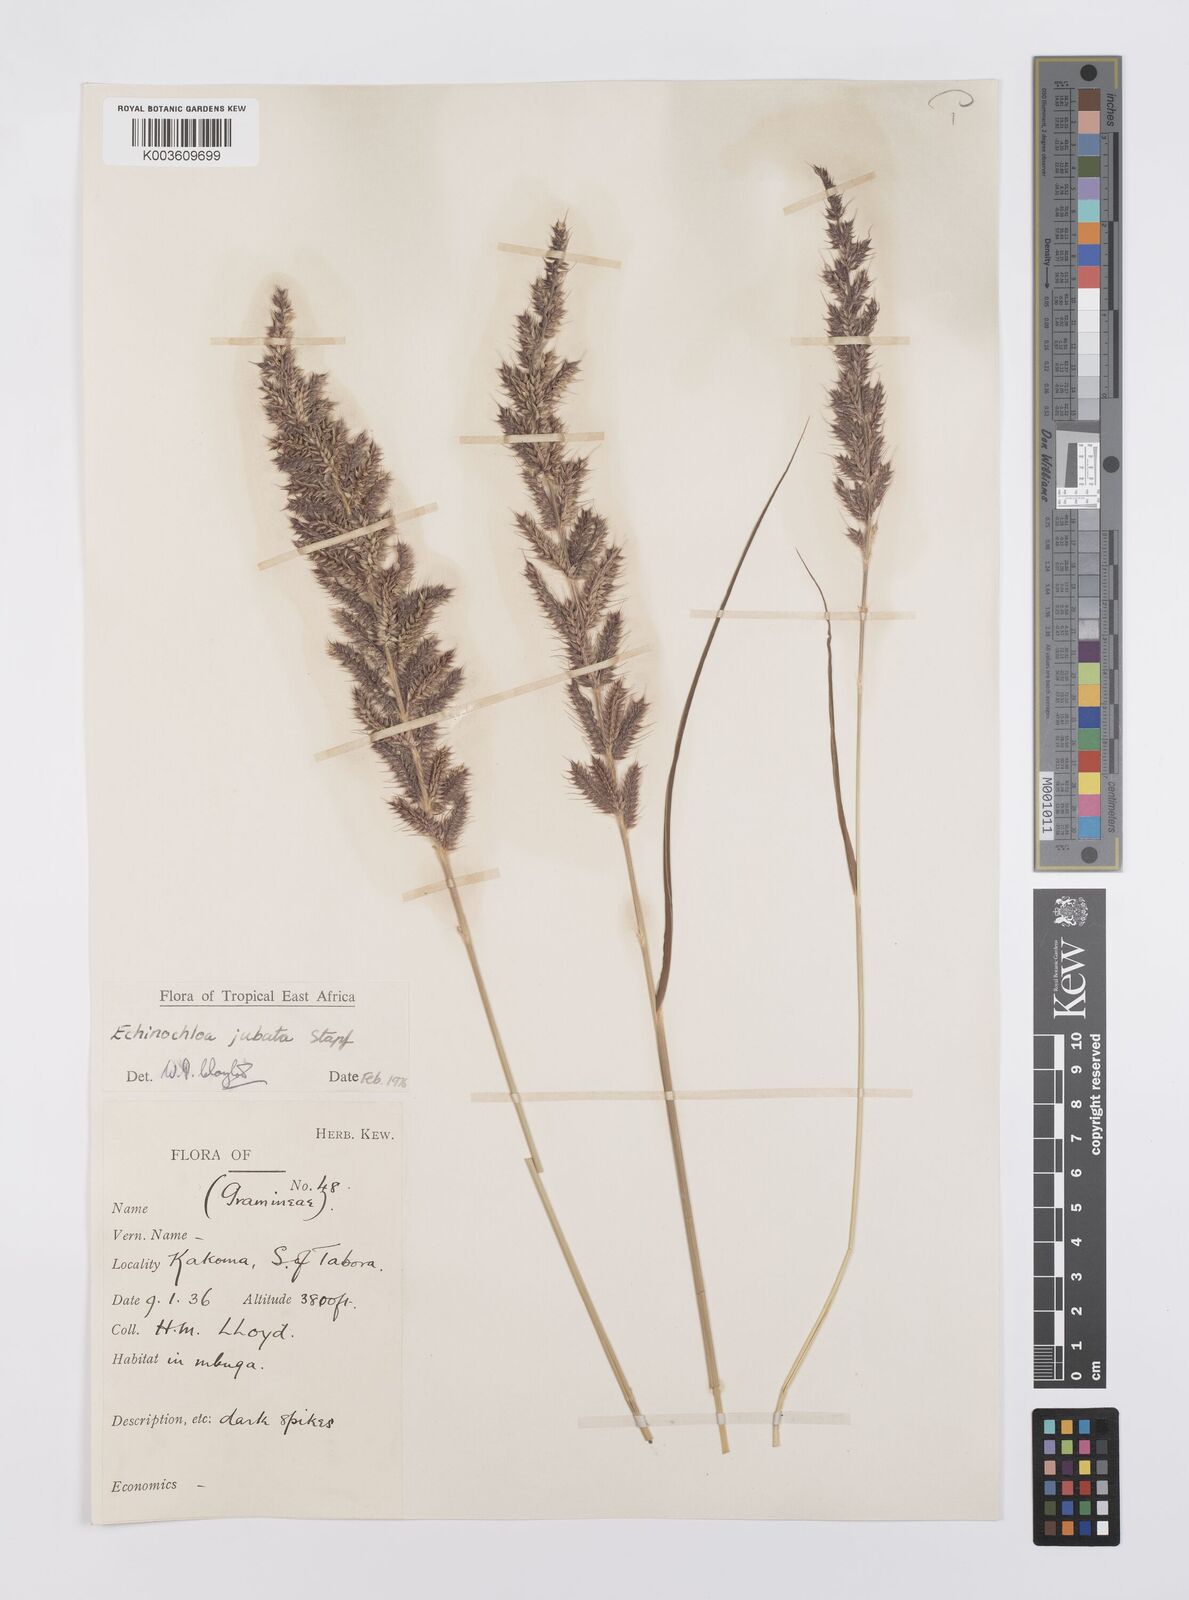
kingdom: Plantae
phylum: Tracheophyta
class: Liliopsida
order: Poales
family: Poaceae
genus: Echinochloa
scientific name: Echinochloa jubata
